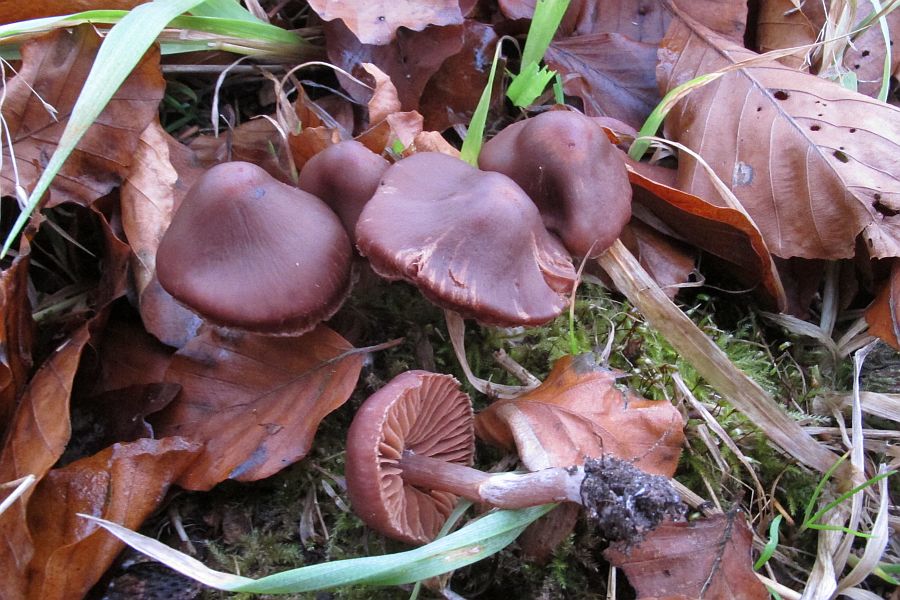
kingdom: Fungi
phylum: Basidiomycota
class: Agaricomycetes
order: Agaricales
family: Cortinariaceae
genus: Cortinarius
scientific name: Cortinarius
